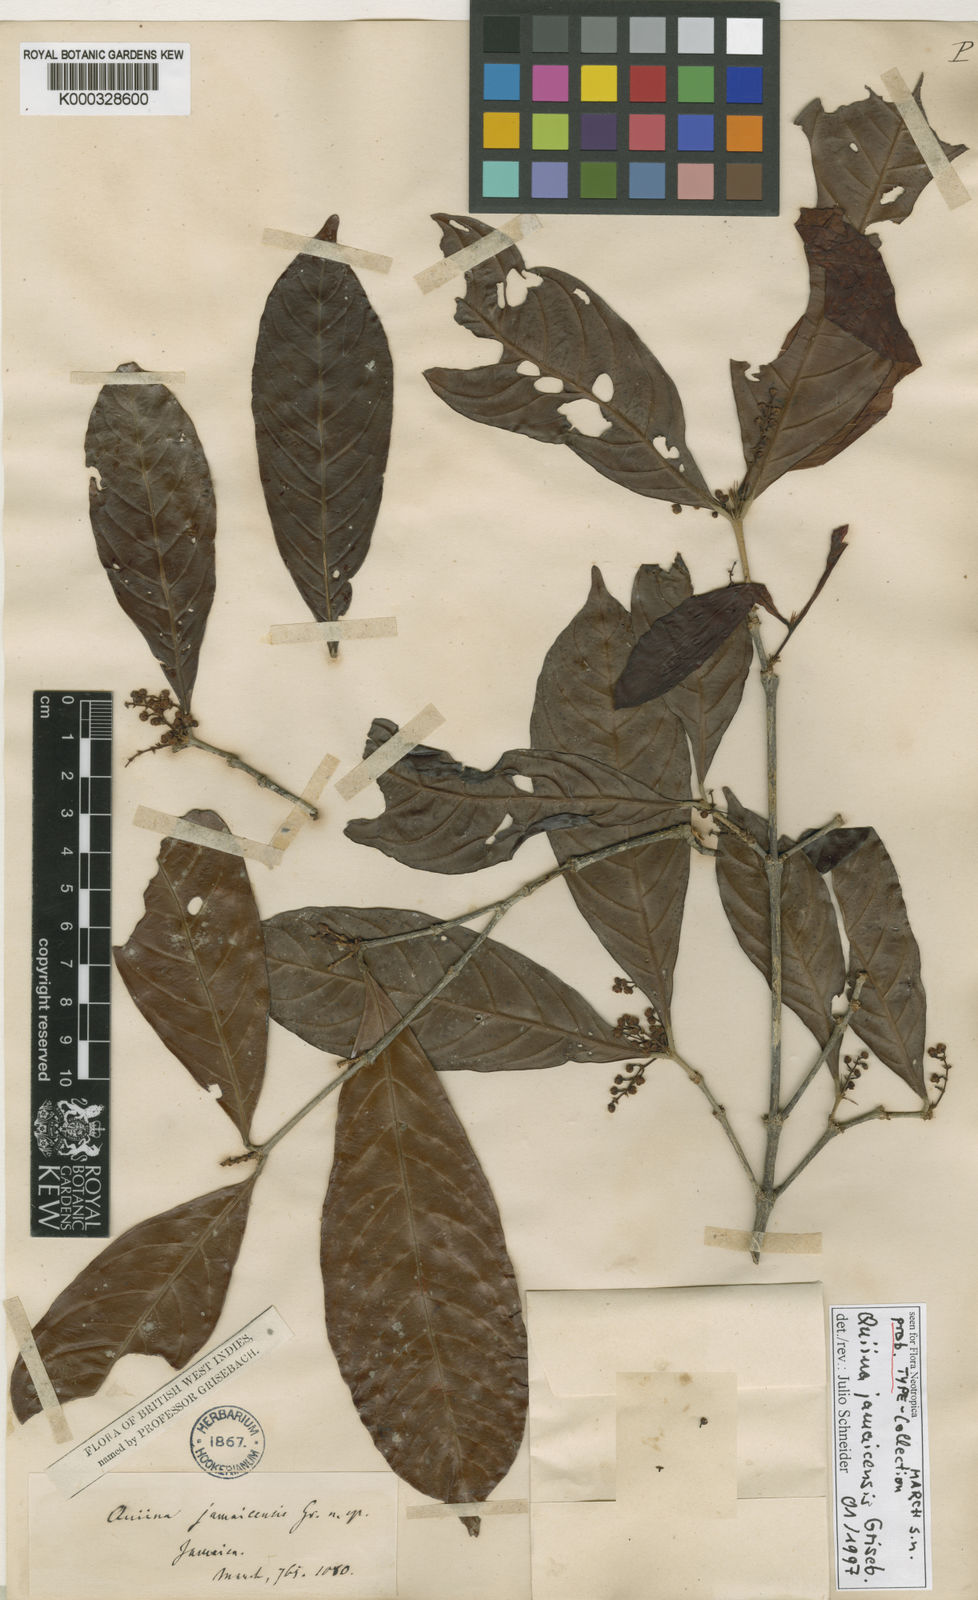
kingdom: Plantae
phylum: Tracheophyta
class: Magnoliopsida
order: Malpighiales
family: Quiinaceae
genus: Quiina
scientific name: Quiina jamaicensis
